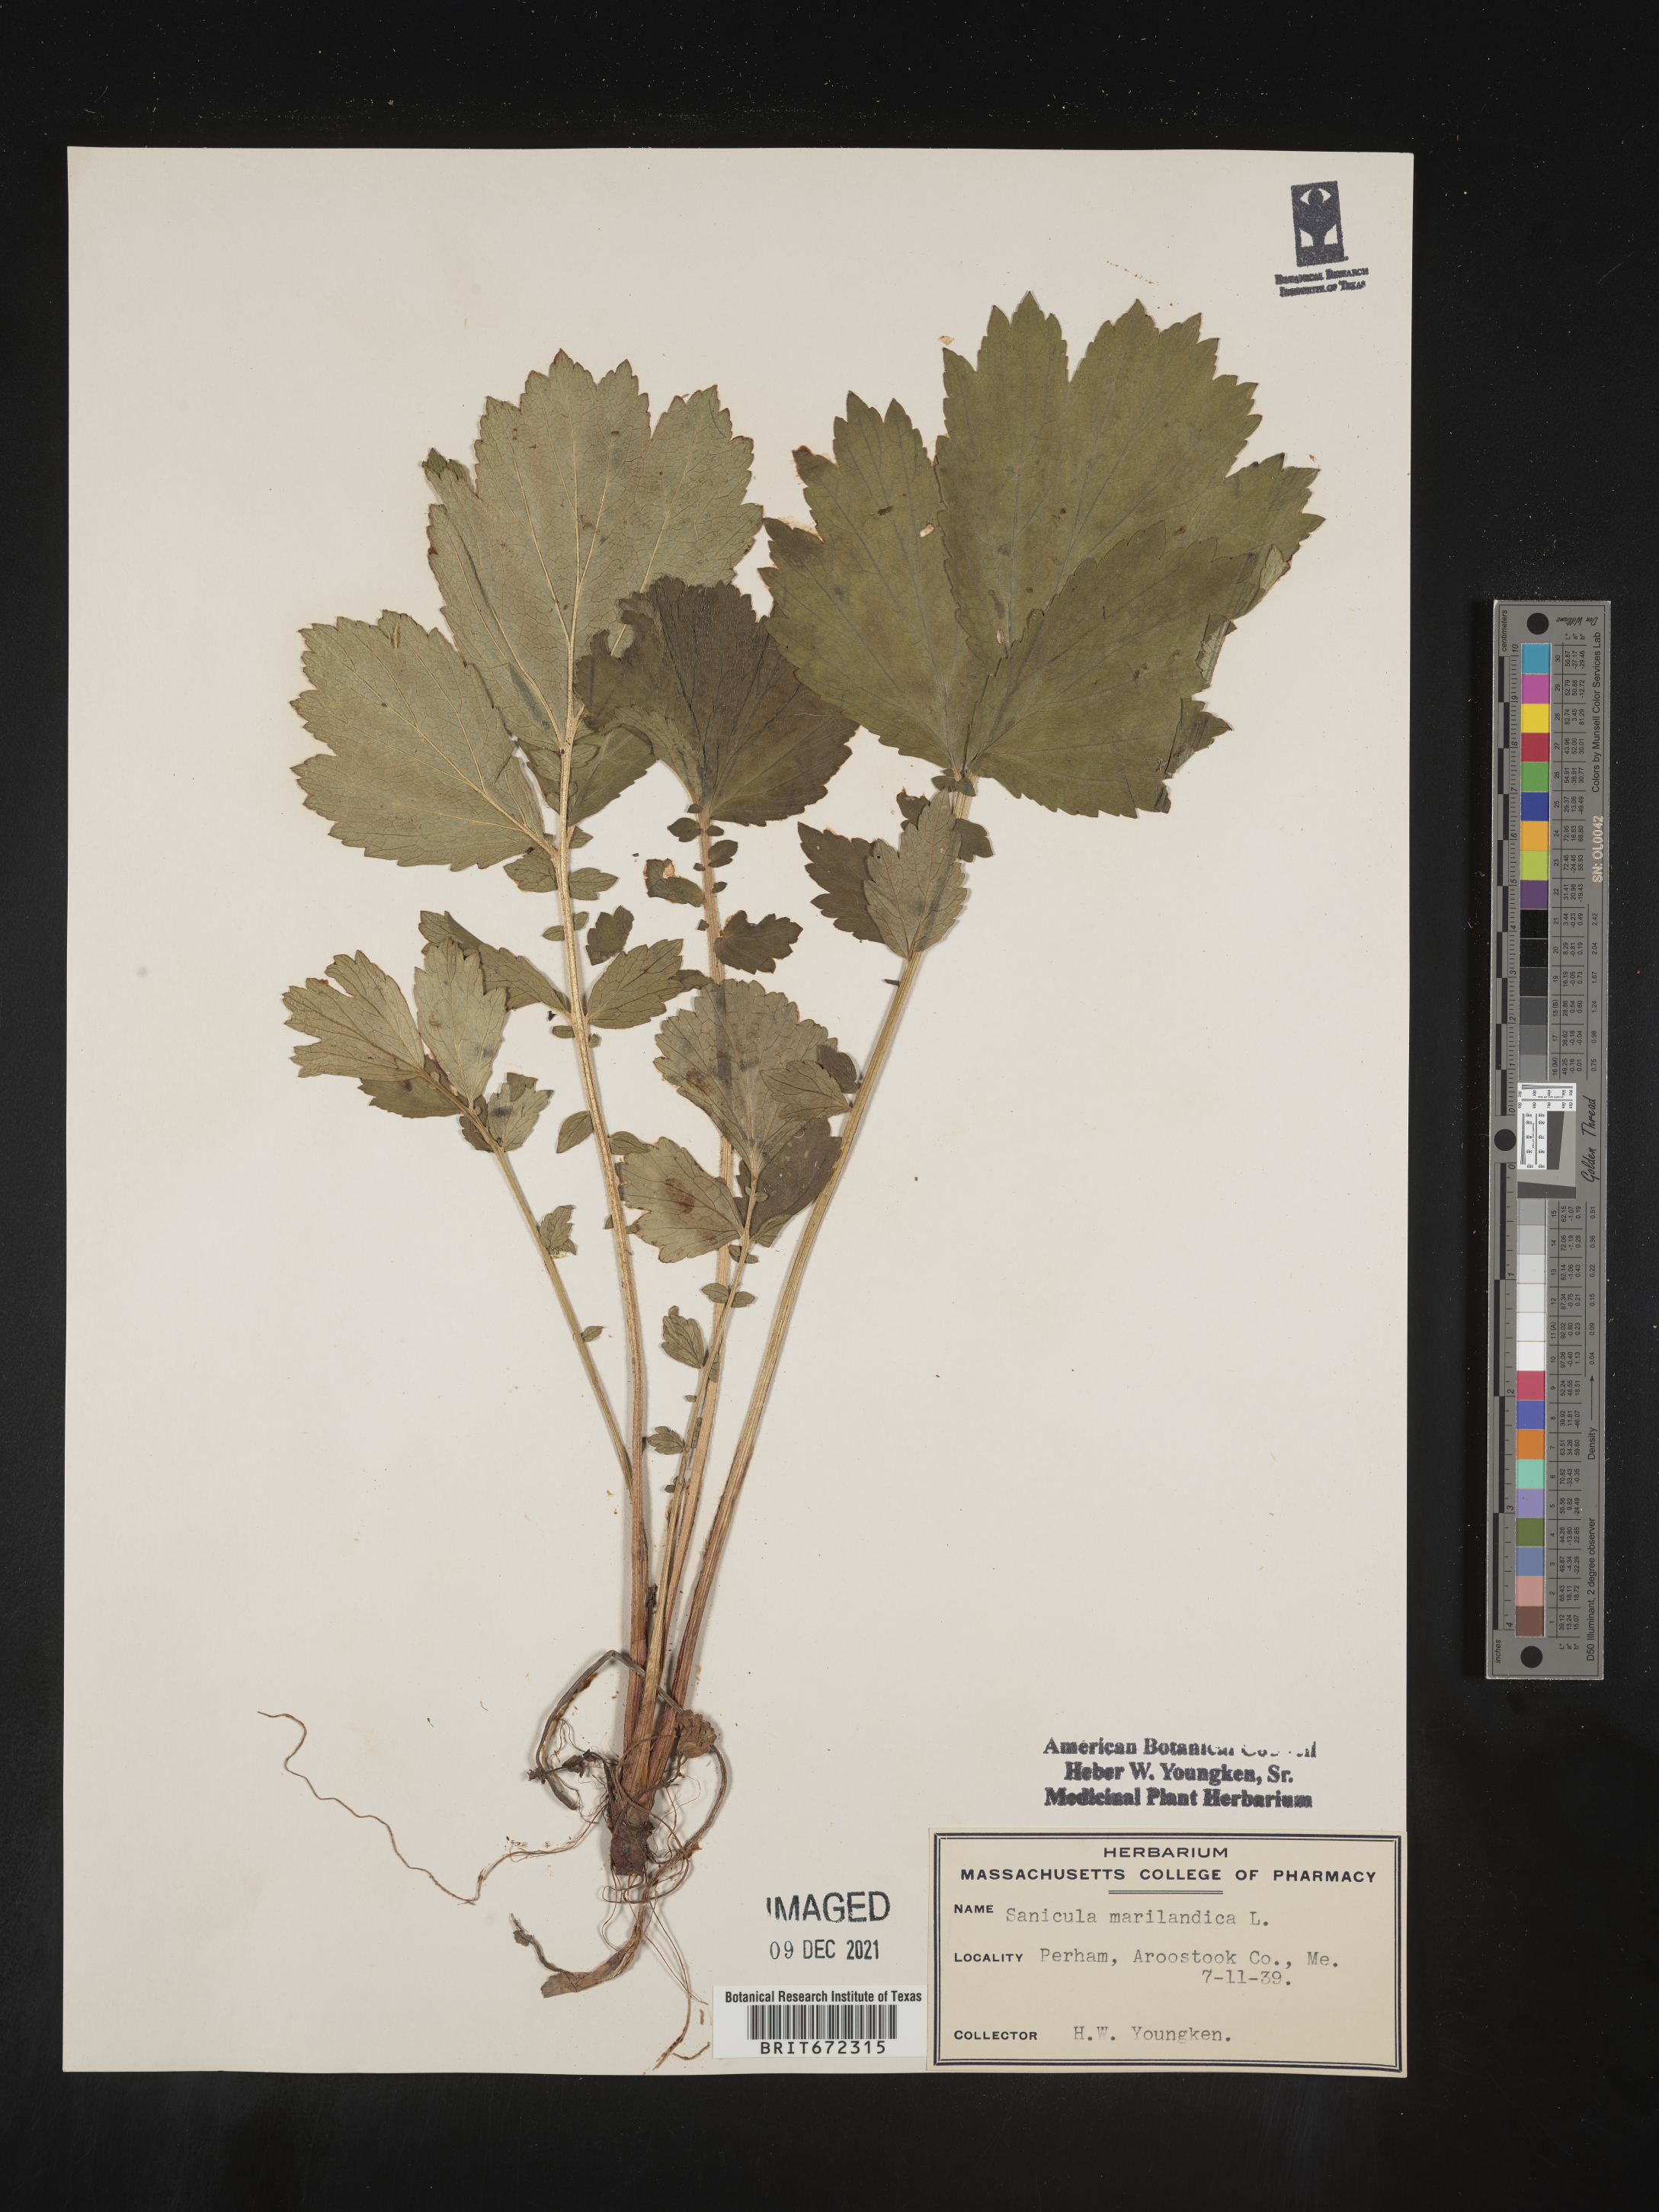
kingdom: Plantae
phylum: Tracheophyta
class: Magnoliopsida
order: Apiales
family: Apiaceae
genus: Sanicula
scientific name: Sanicula marilandica
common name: Black snakeroot
